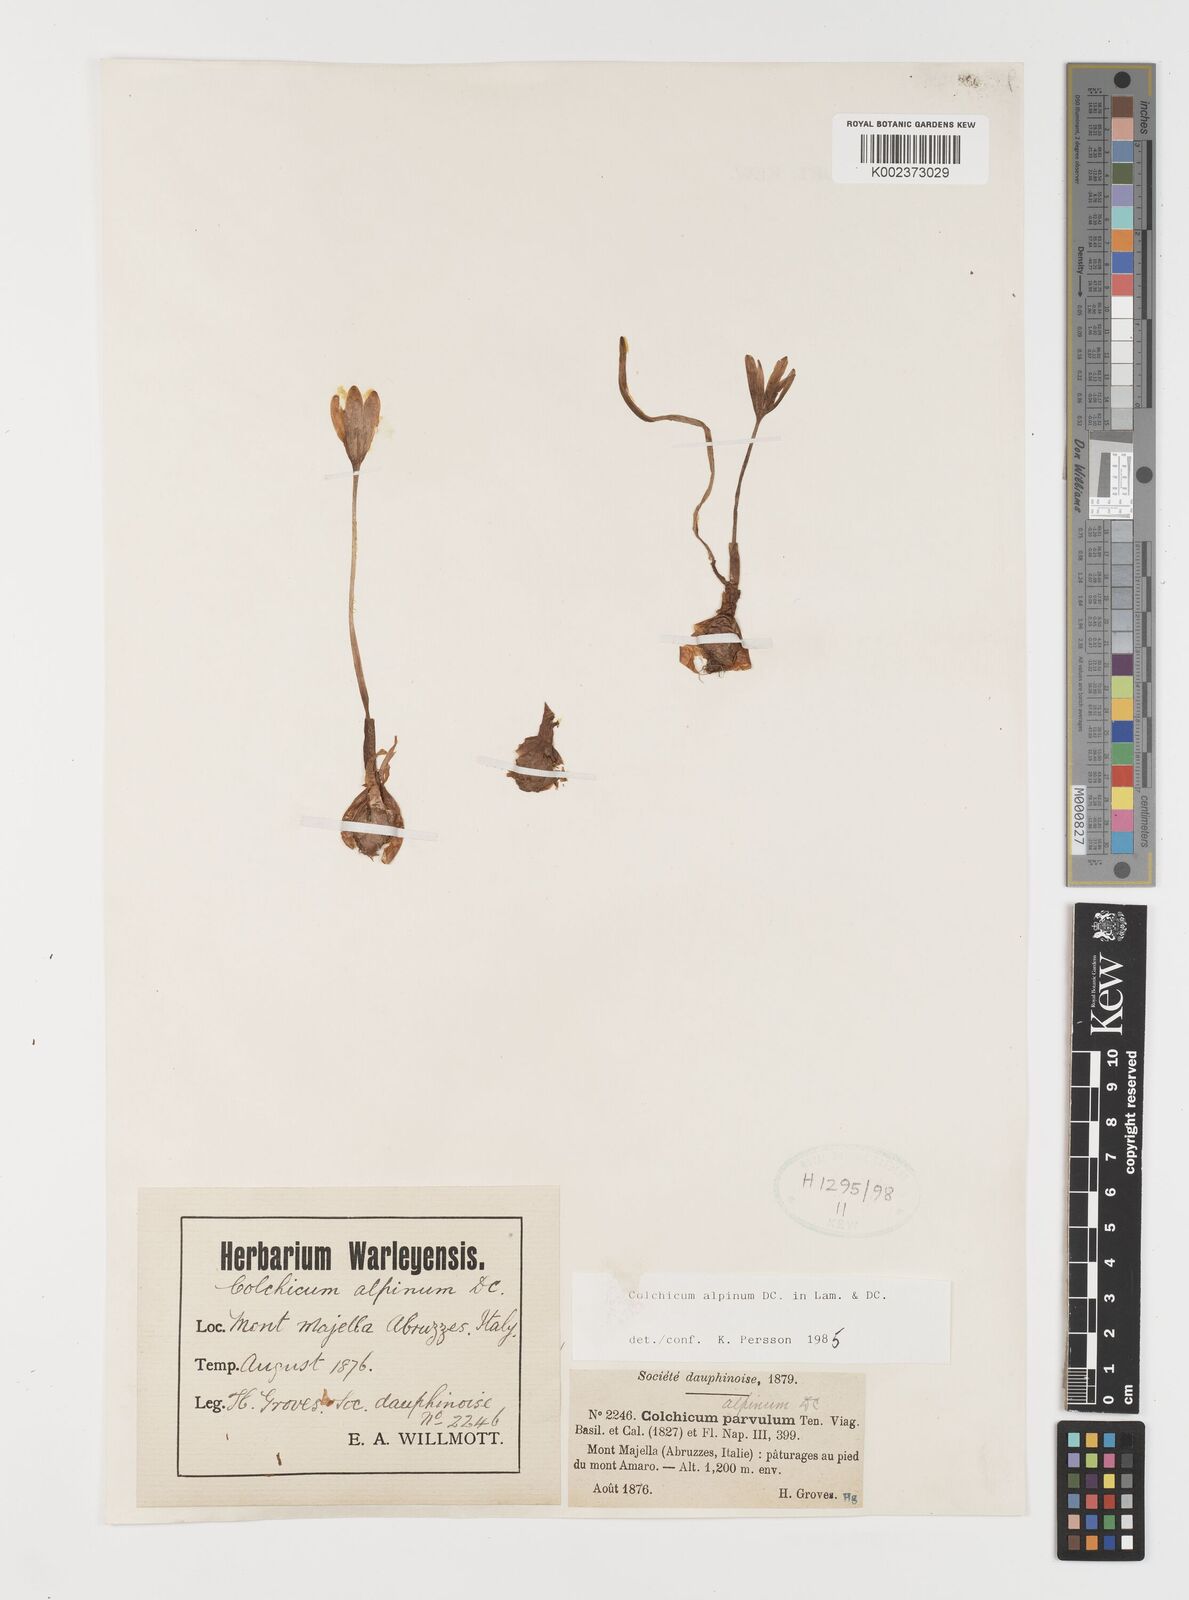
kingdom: Plantae
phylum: Tracheophyta
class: Liliopsida
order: Liliales
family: Colchicaceae
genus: Colchicum
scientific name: Colchicum alpinum
